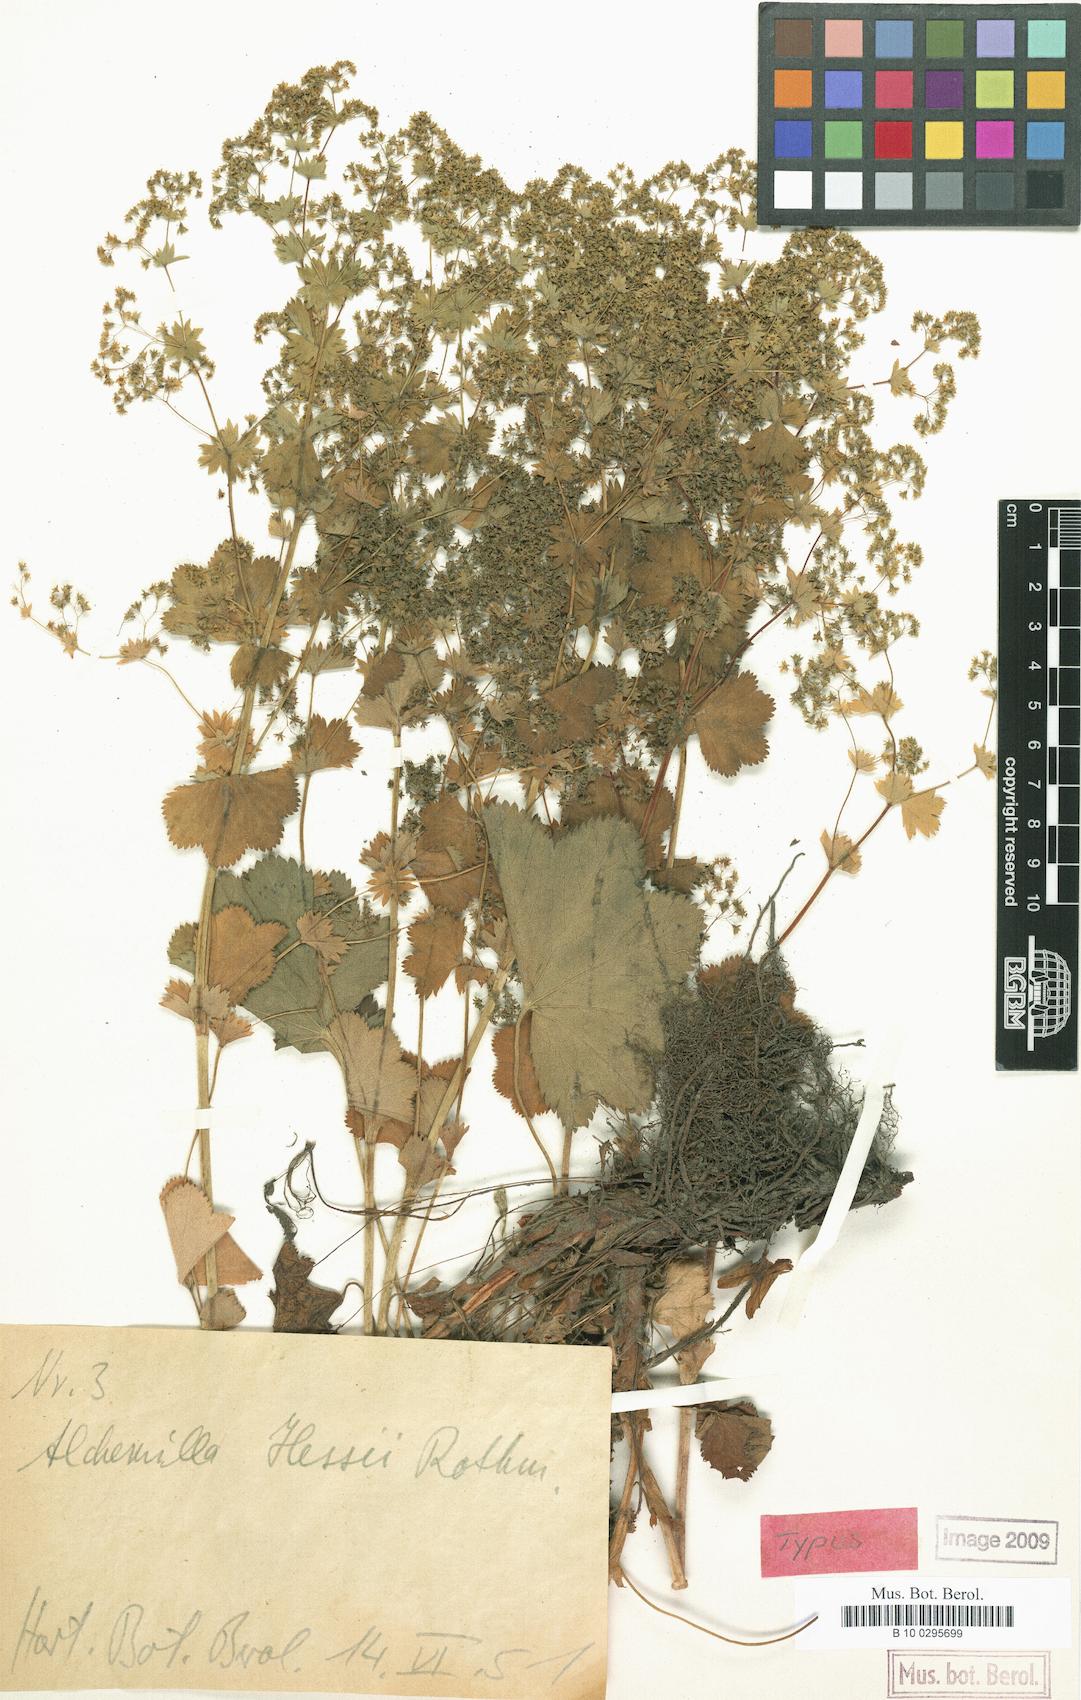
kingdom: Plantae
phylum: Tracheophyta
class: Magnoliopsida
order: Rosales
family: Rosaceae
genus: Alchemilla
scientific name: Alchemilla hessii
